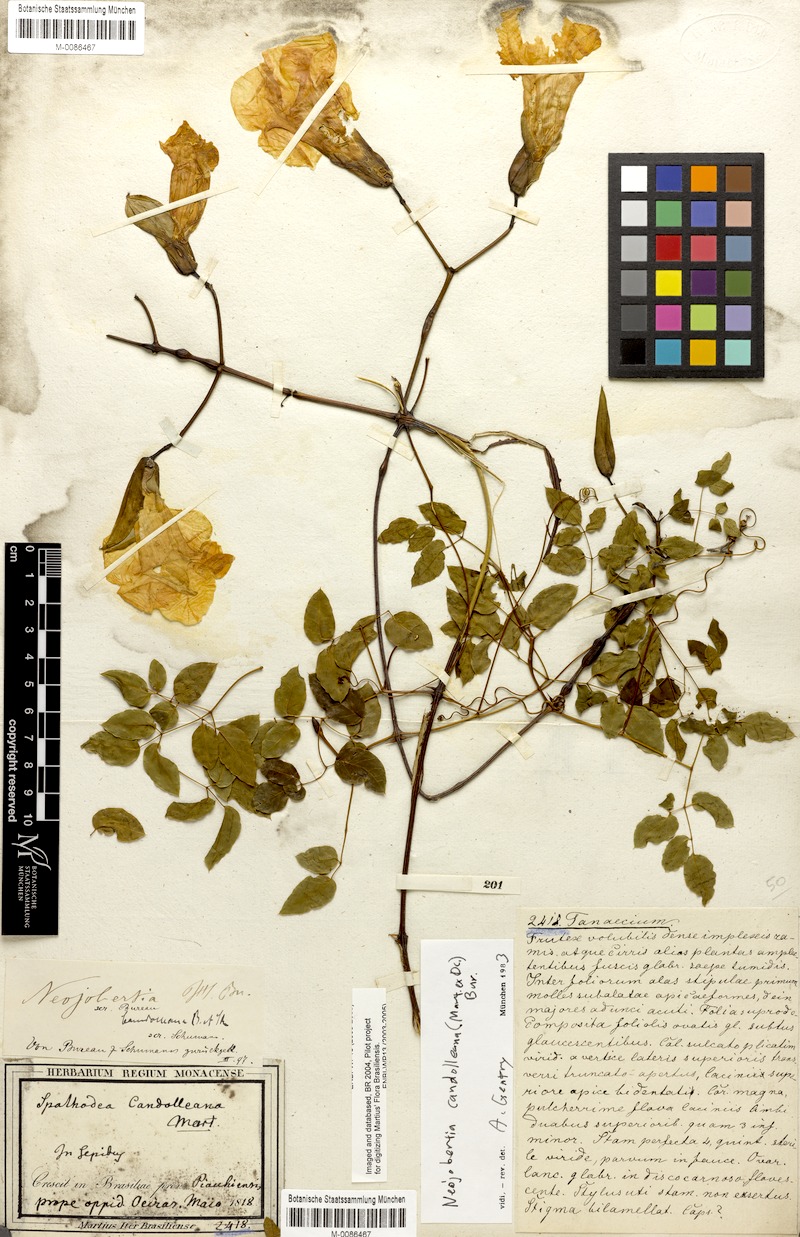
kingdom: Plantae
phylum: Tracheophyta
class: Magnoliopsida
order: Lamiales
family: Bignoniaceae
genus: Adenocalymma
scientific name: Adenocalymma candolleanum
